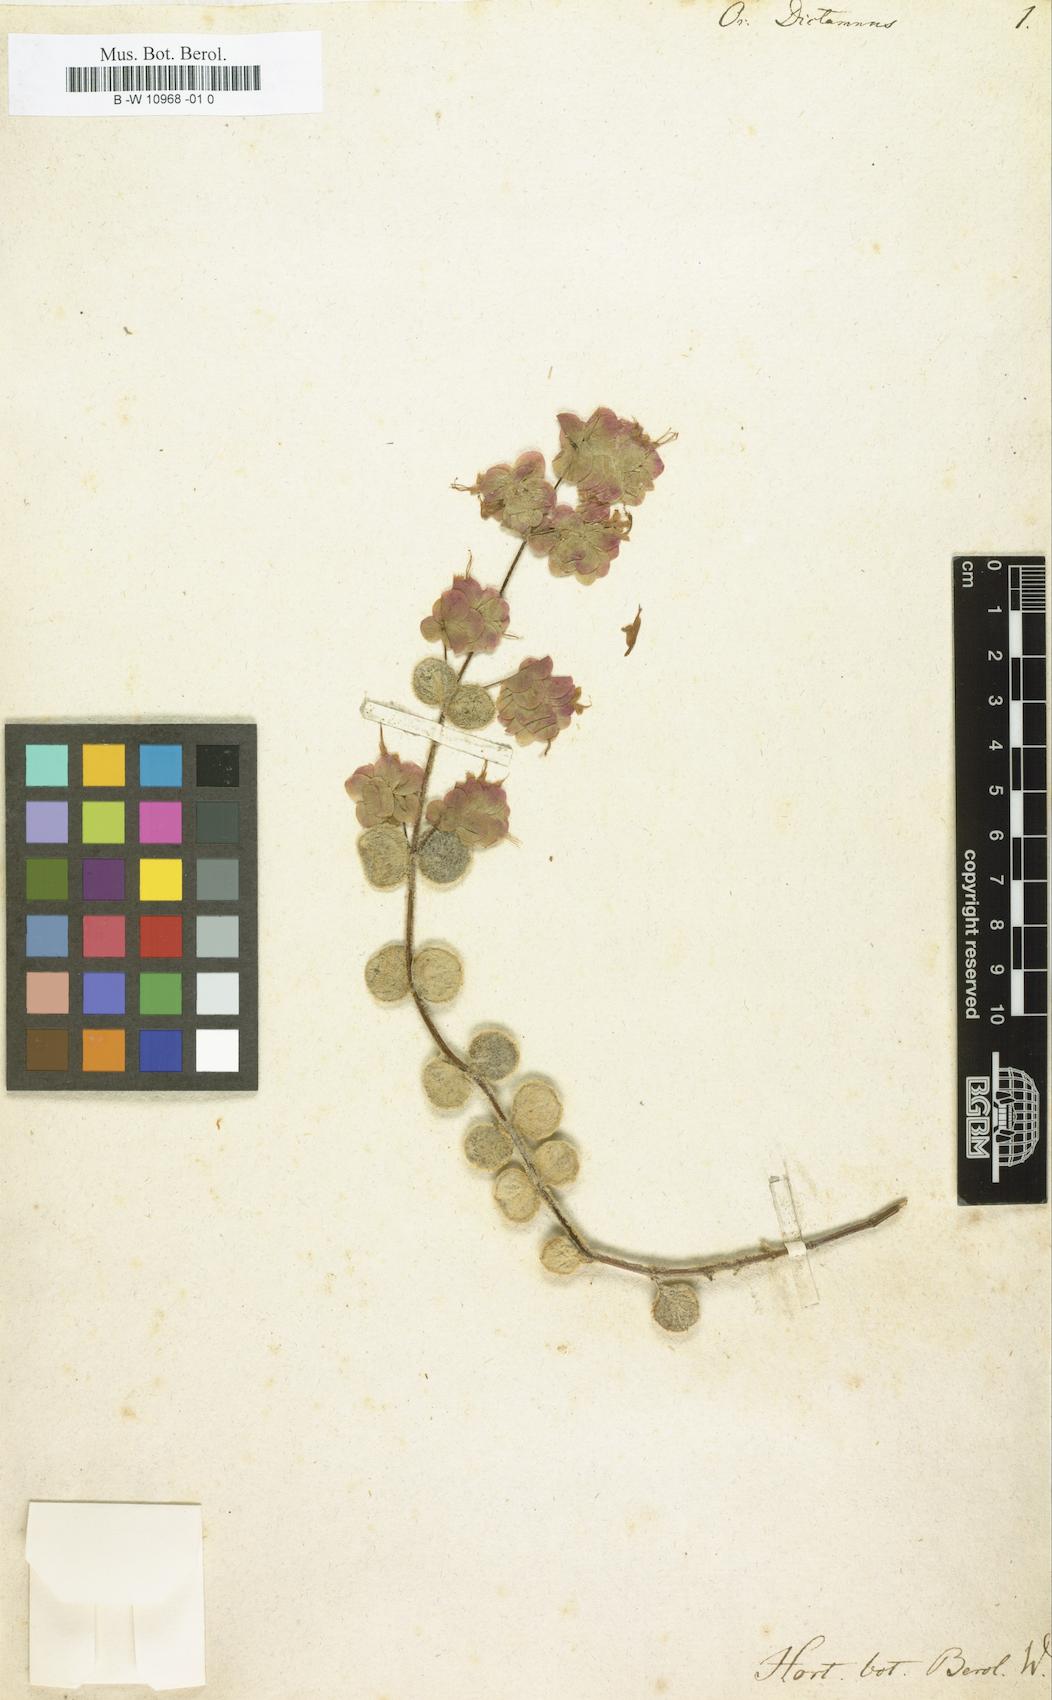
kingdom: Plantae
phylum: Tracheophyta
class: Magnoliopsida
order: Lamiales
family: Lamiaceae
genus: Origanum
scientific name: Origanum dictamnus
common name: Cretan dittany
